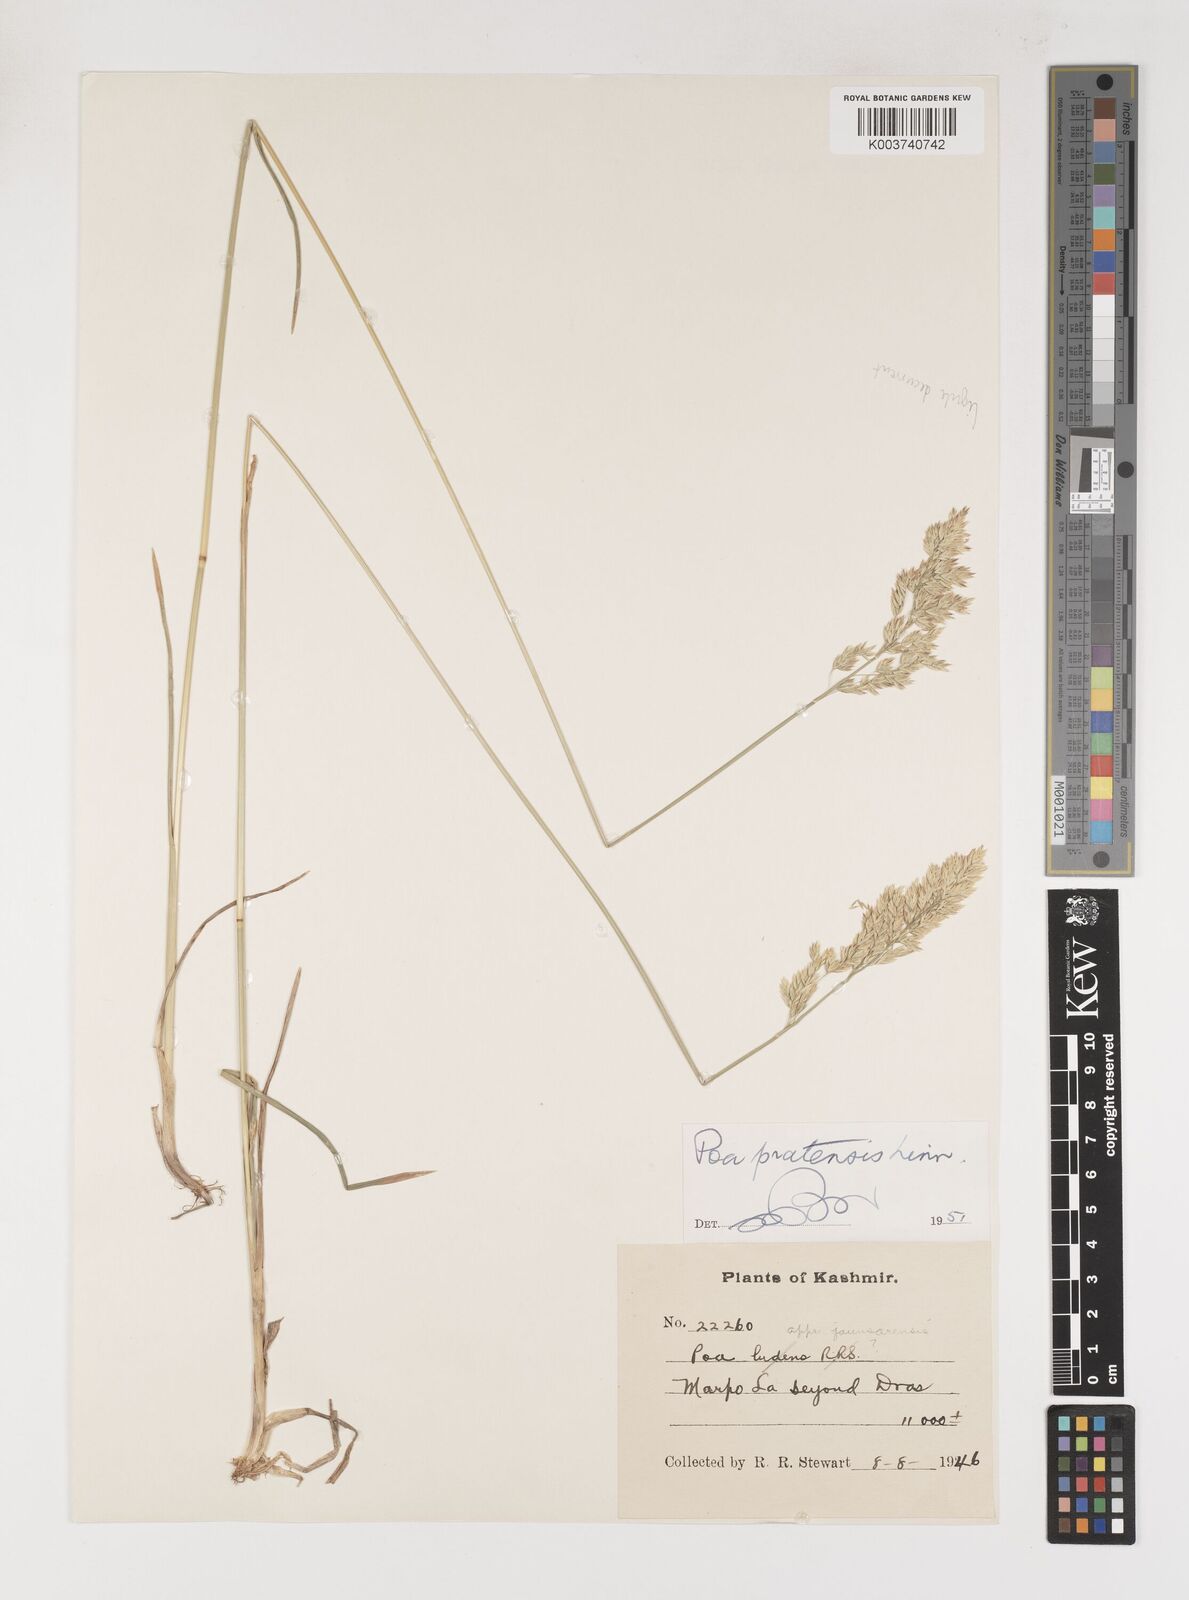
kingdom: Plantae
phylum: Tracheophyta
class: Liliopsida
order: Poales
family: Poaceae
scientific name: Poaceae
